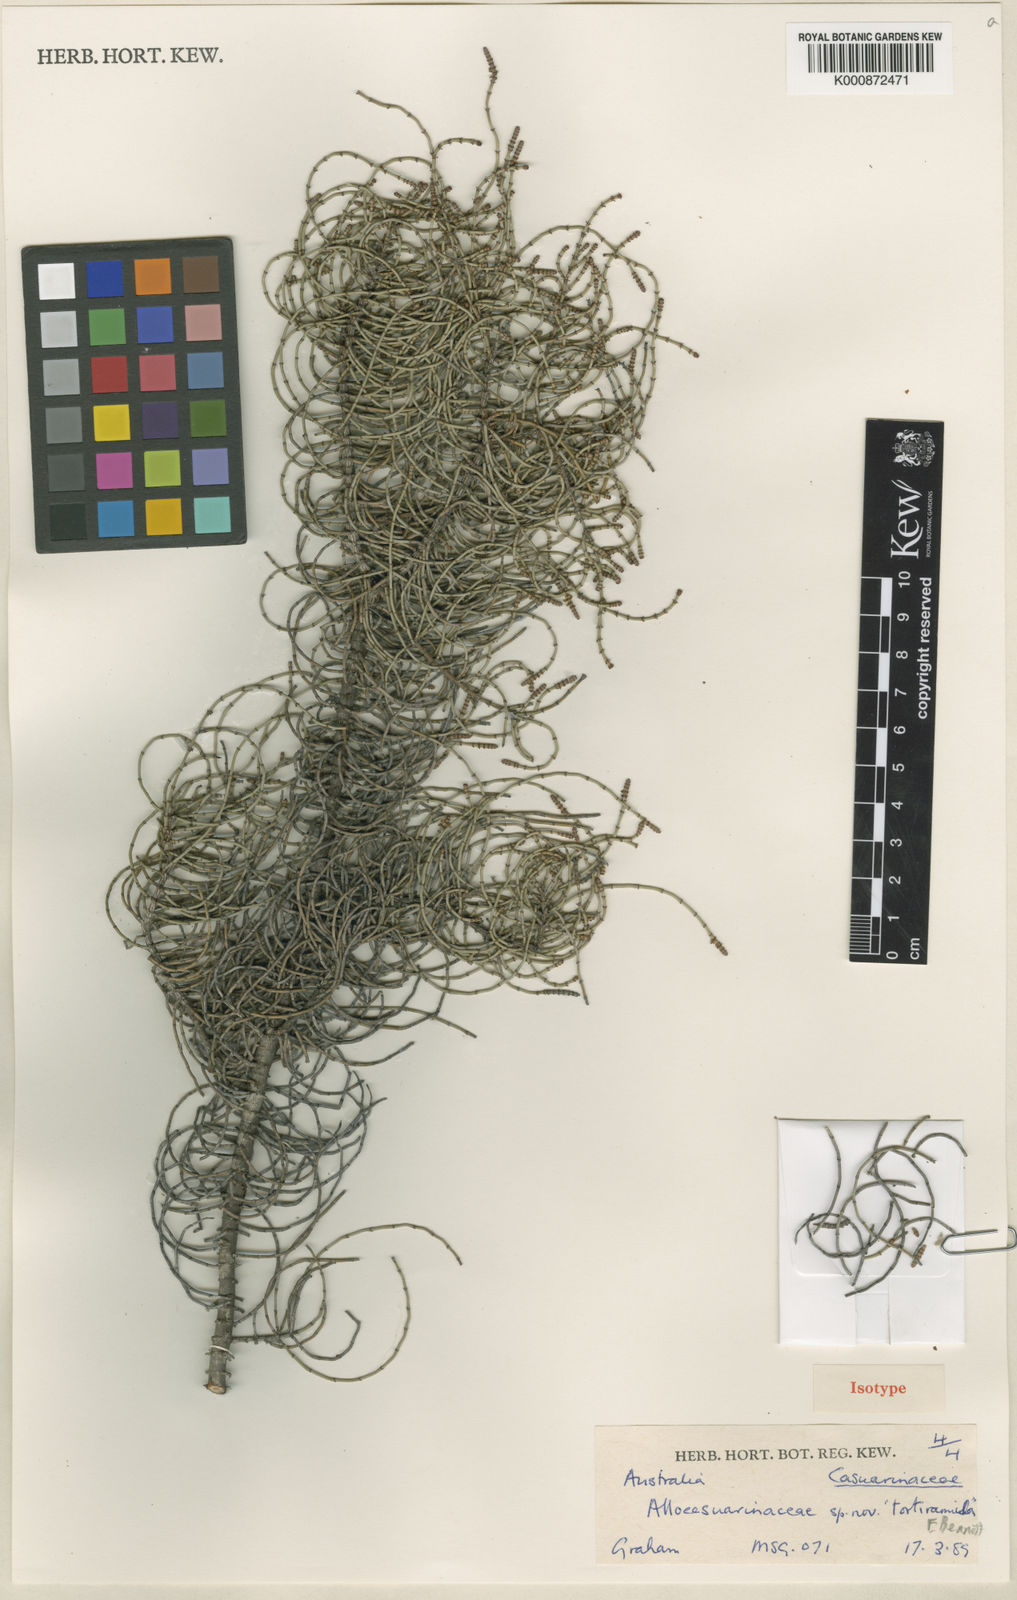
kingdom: Plantae
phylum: Tracheophyta
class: Magnoliopsida
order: Fagales
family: Casuarinaceae
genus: Allocasuarina
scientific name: Allocasuarina tortiramula
